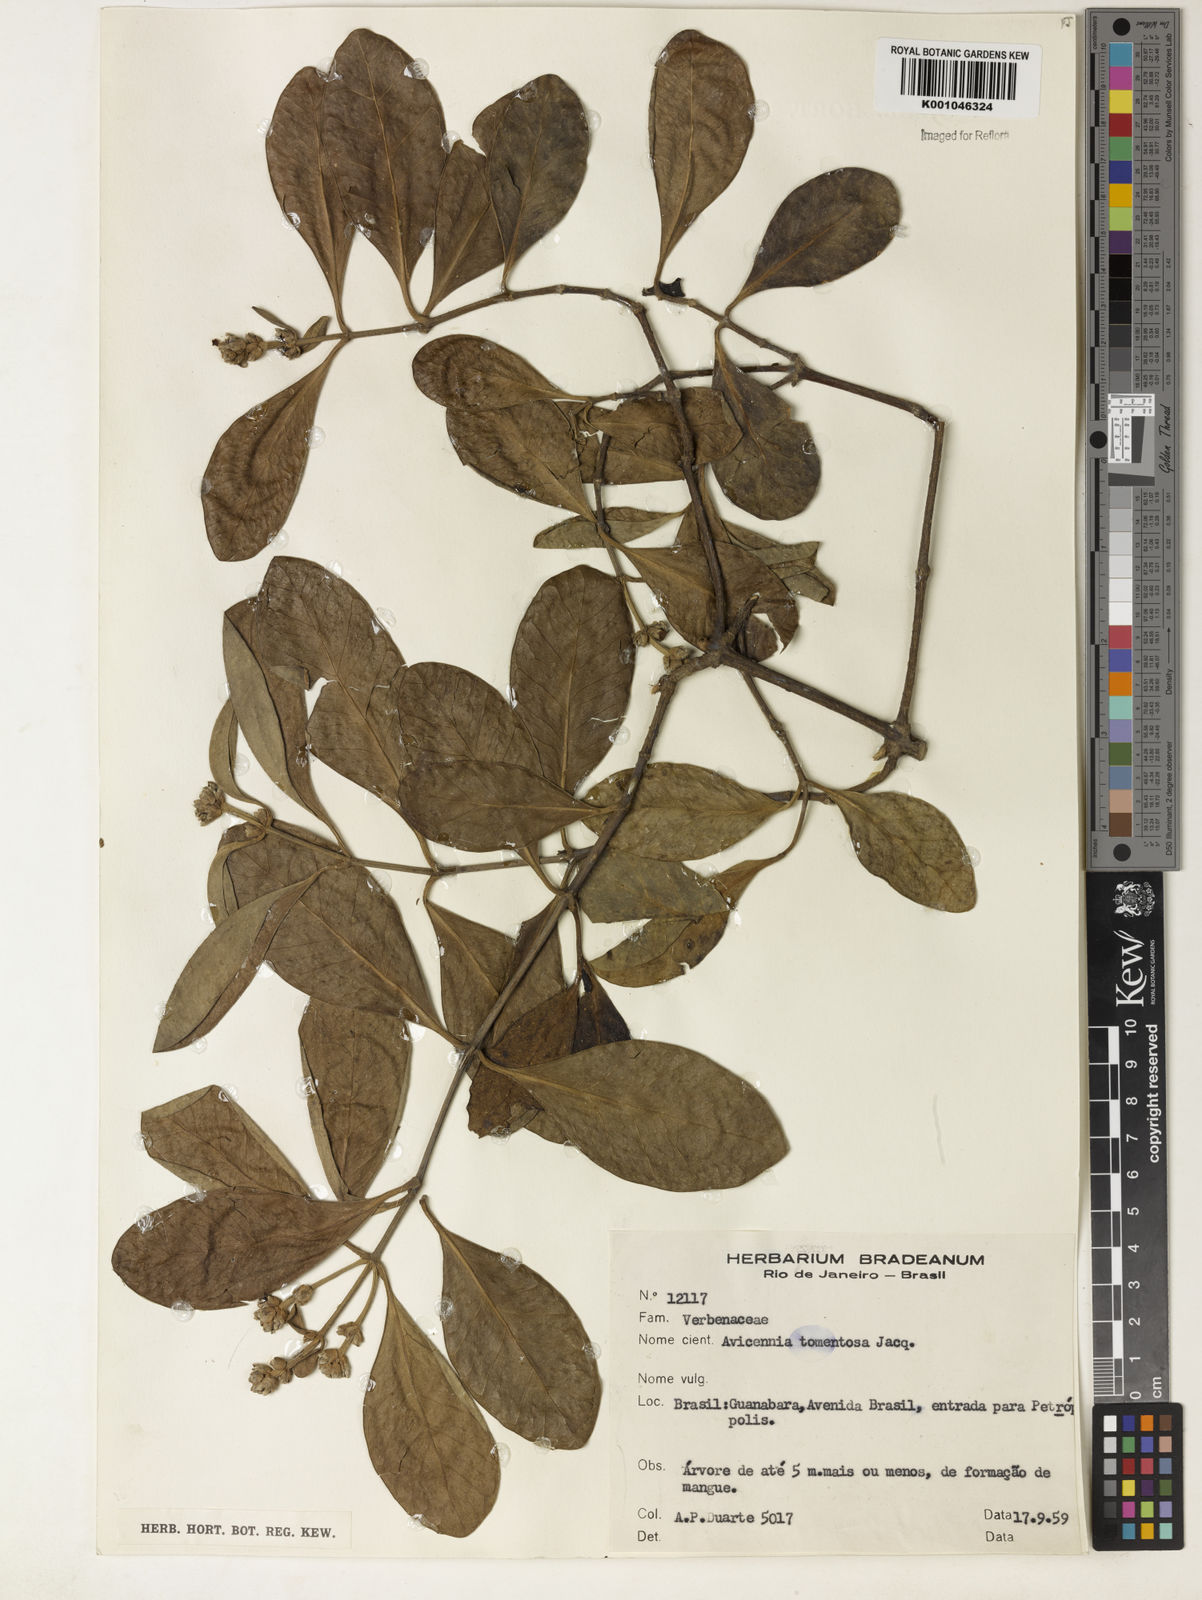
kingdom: Plantae
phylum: Tracheophyta
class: Magnoliopsida
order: Lamiales
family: Acanthaceae
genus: Avicennia
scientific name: Avicennia germinans
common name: Black mangrove
